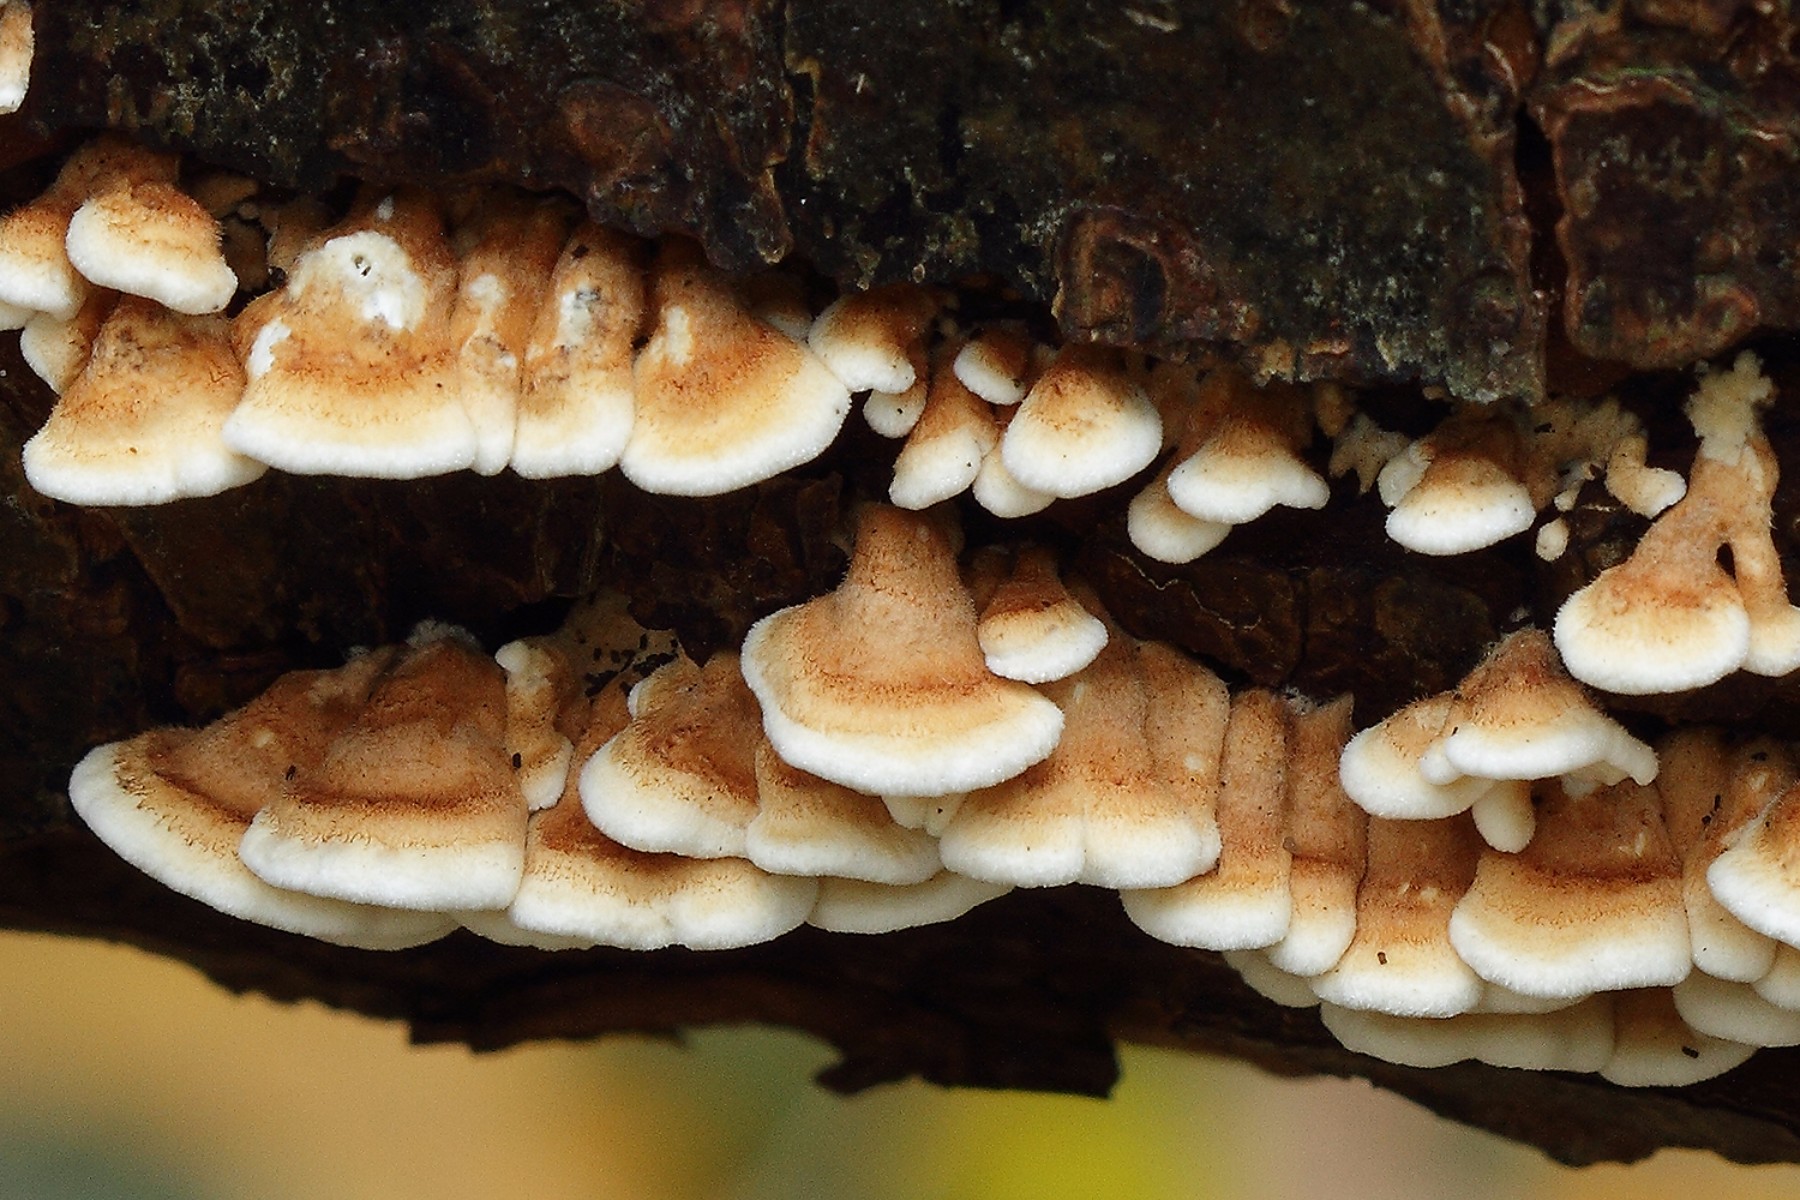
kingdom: Fungi
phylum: Basidiomycota
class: Agaricomycetes
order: Amylocorticiales
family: Amylocorticiaceae
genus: Plicaturopsis
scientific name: Plicaturopsis crispa
